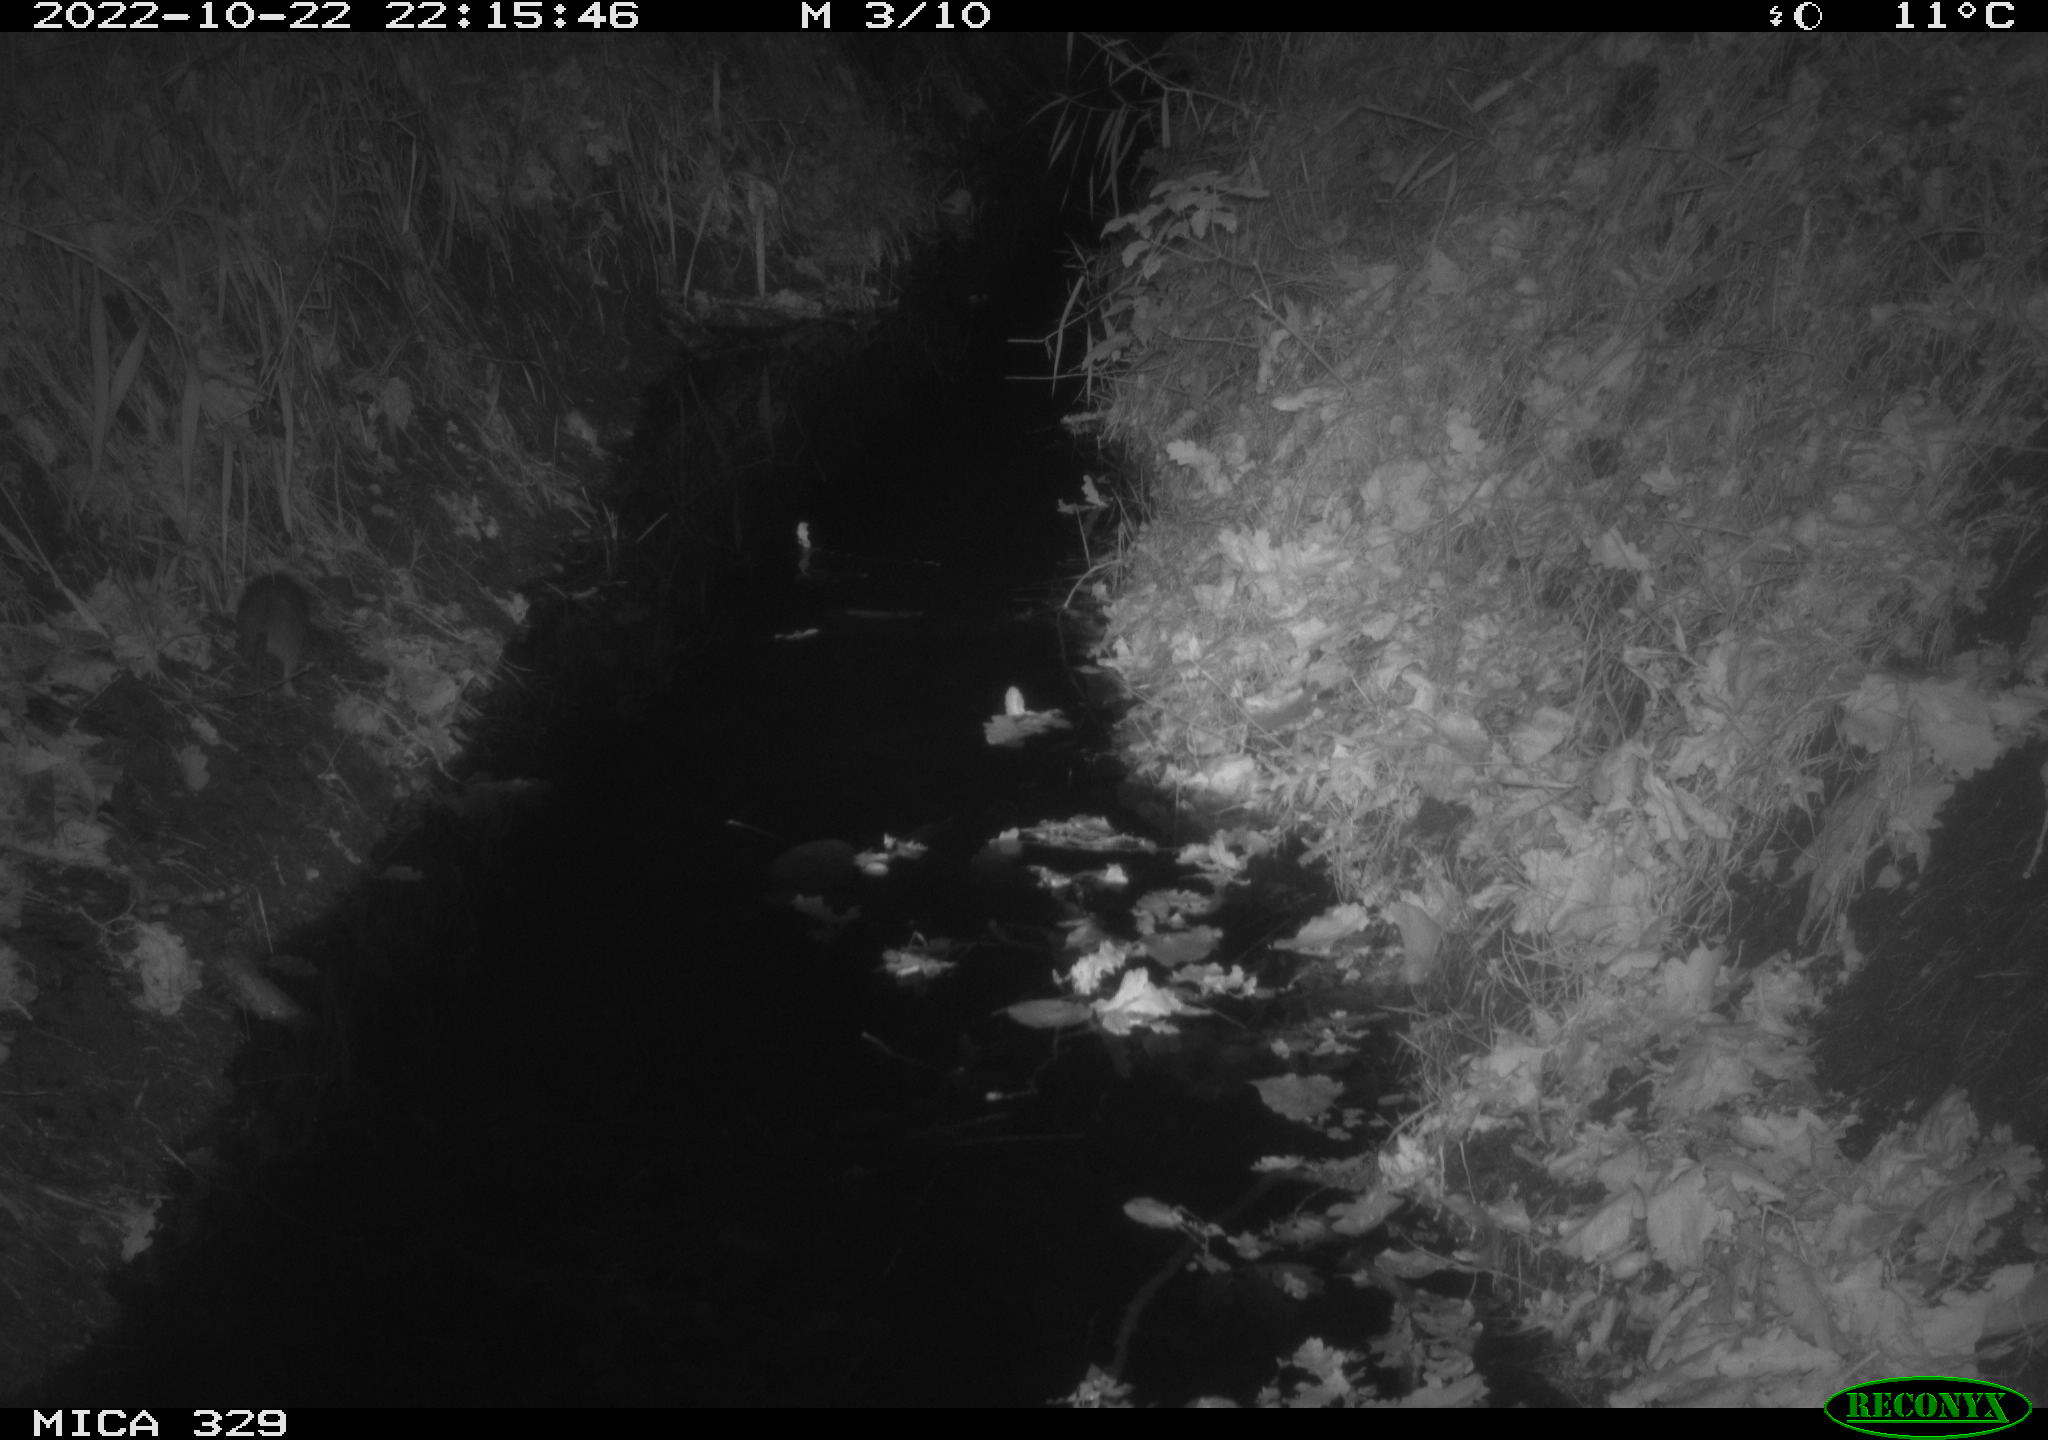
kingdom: Animalia
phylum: Chordata
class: Mammalia
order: Rodentia
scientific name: Rodentia
